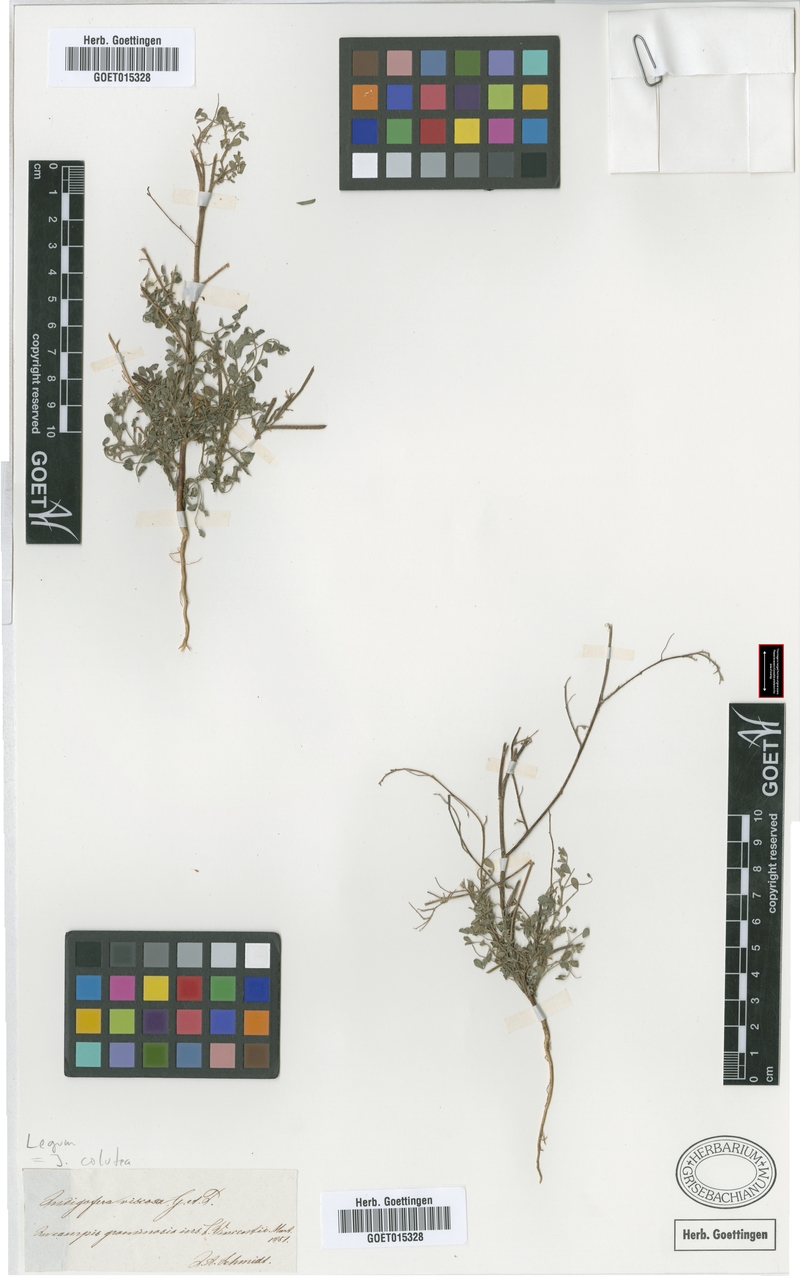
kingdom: Plantae
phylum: Tracheophyta
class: Magnoliopsida
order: Fabales
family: Fabaceae
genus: Indigofera
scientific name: Indigofera colutea
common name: Rusty indigo
